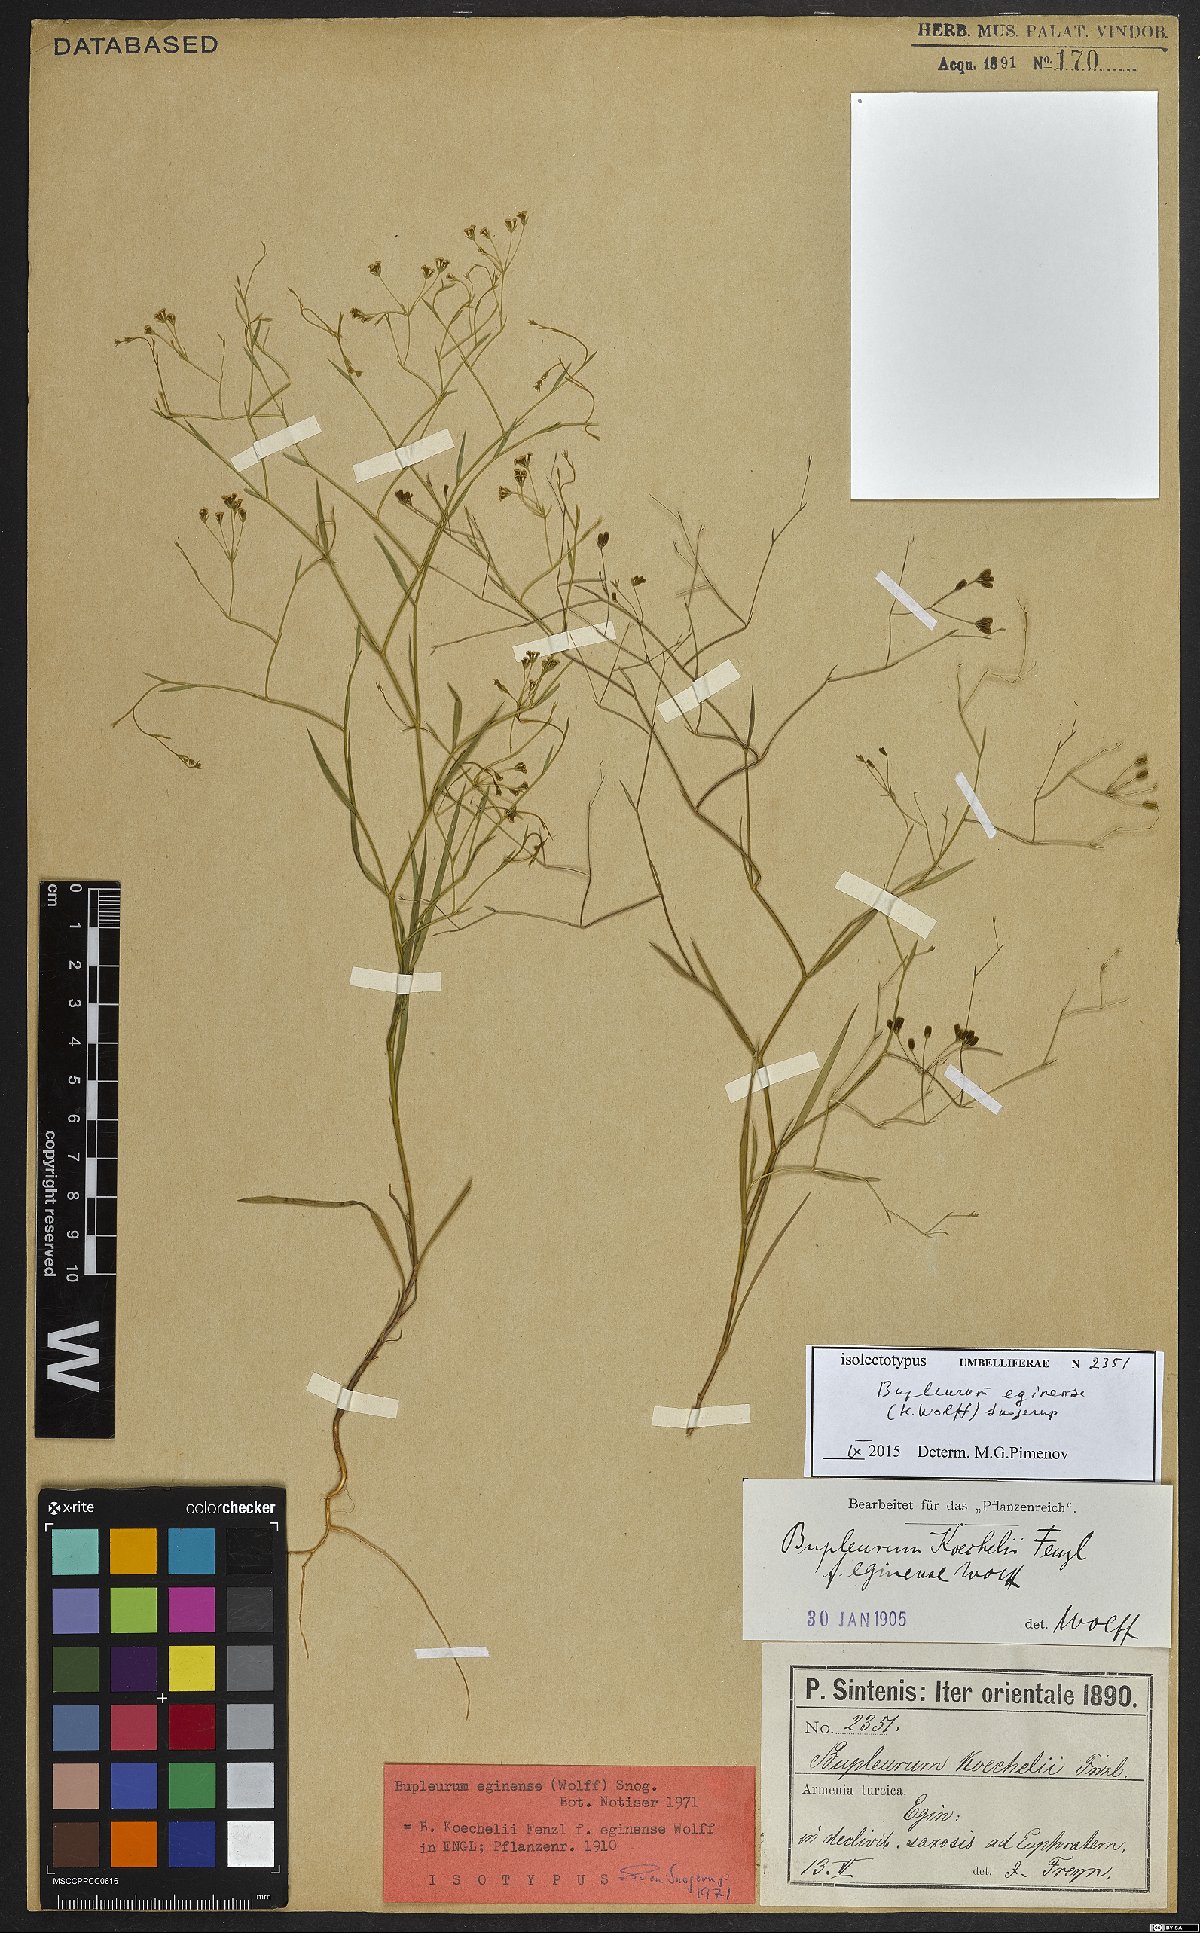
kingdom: Plantae
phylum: Tracheophyta
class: Magnoliopsida
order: Apiales
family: Apiaceae
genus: Bupleurum
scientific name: Bupleurum eginense
